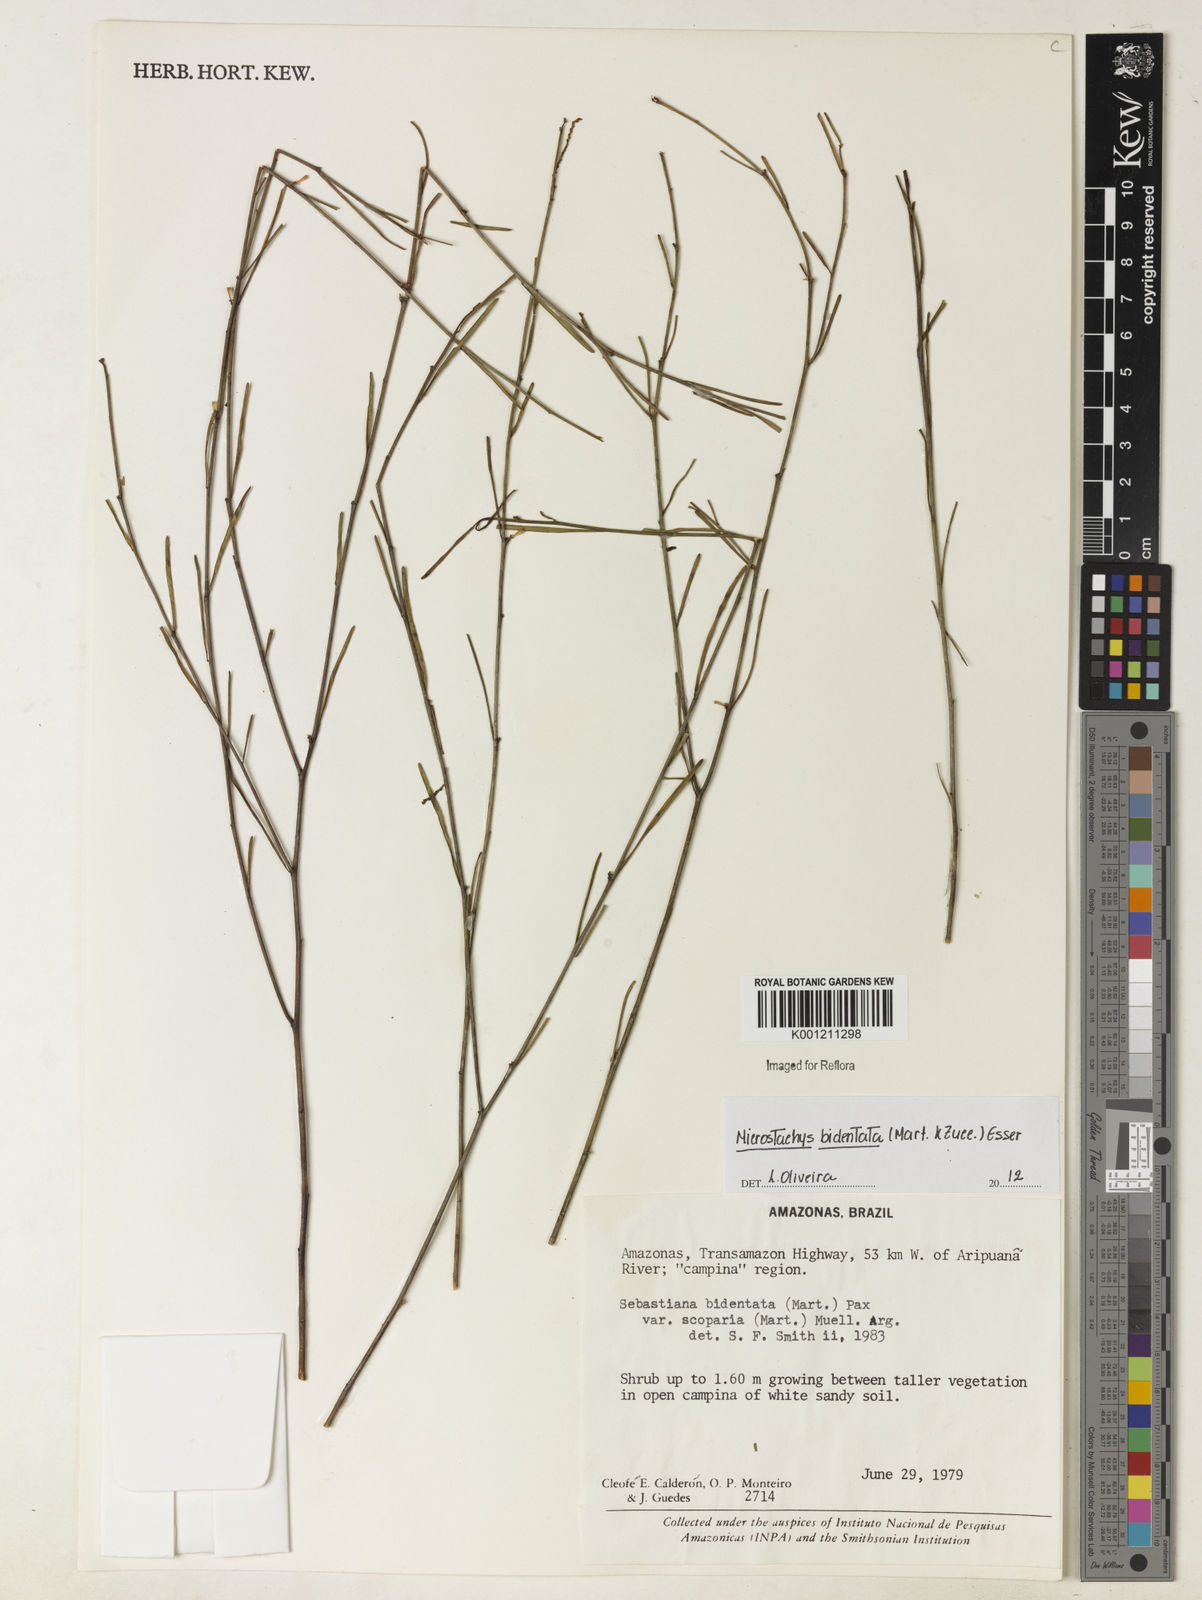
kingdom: Plantae
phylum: Tracheophyta
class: Magnoliopsida
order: Malpighiales
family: Euphorbiaceae
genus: Microstachys
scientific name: Microstachys bidentata
